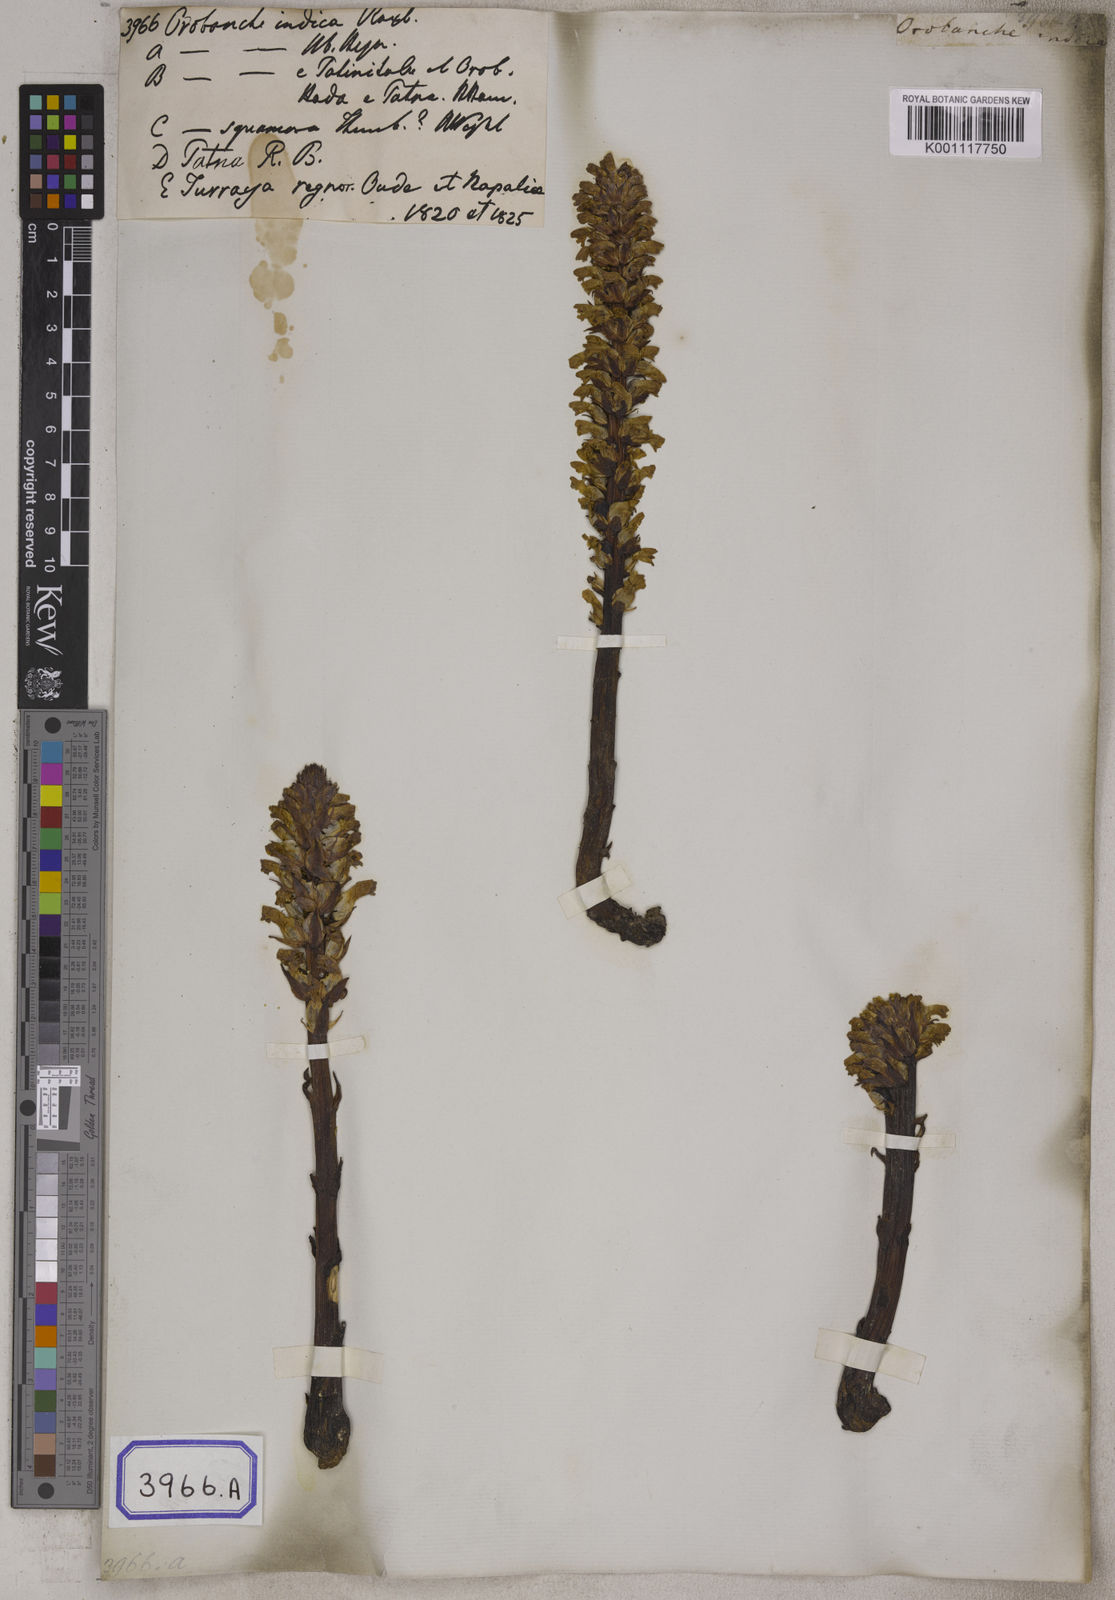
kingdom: Plantae
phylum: Tracheophyta
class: Magnoliopsida
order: Lamiales
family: Orobanchaceae
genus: Orobanche
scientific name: Orobanche cernua
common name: Australian broomrape
